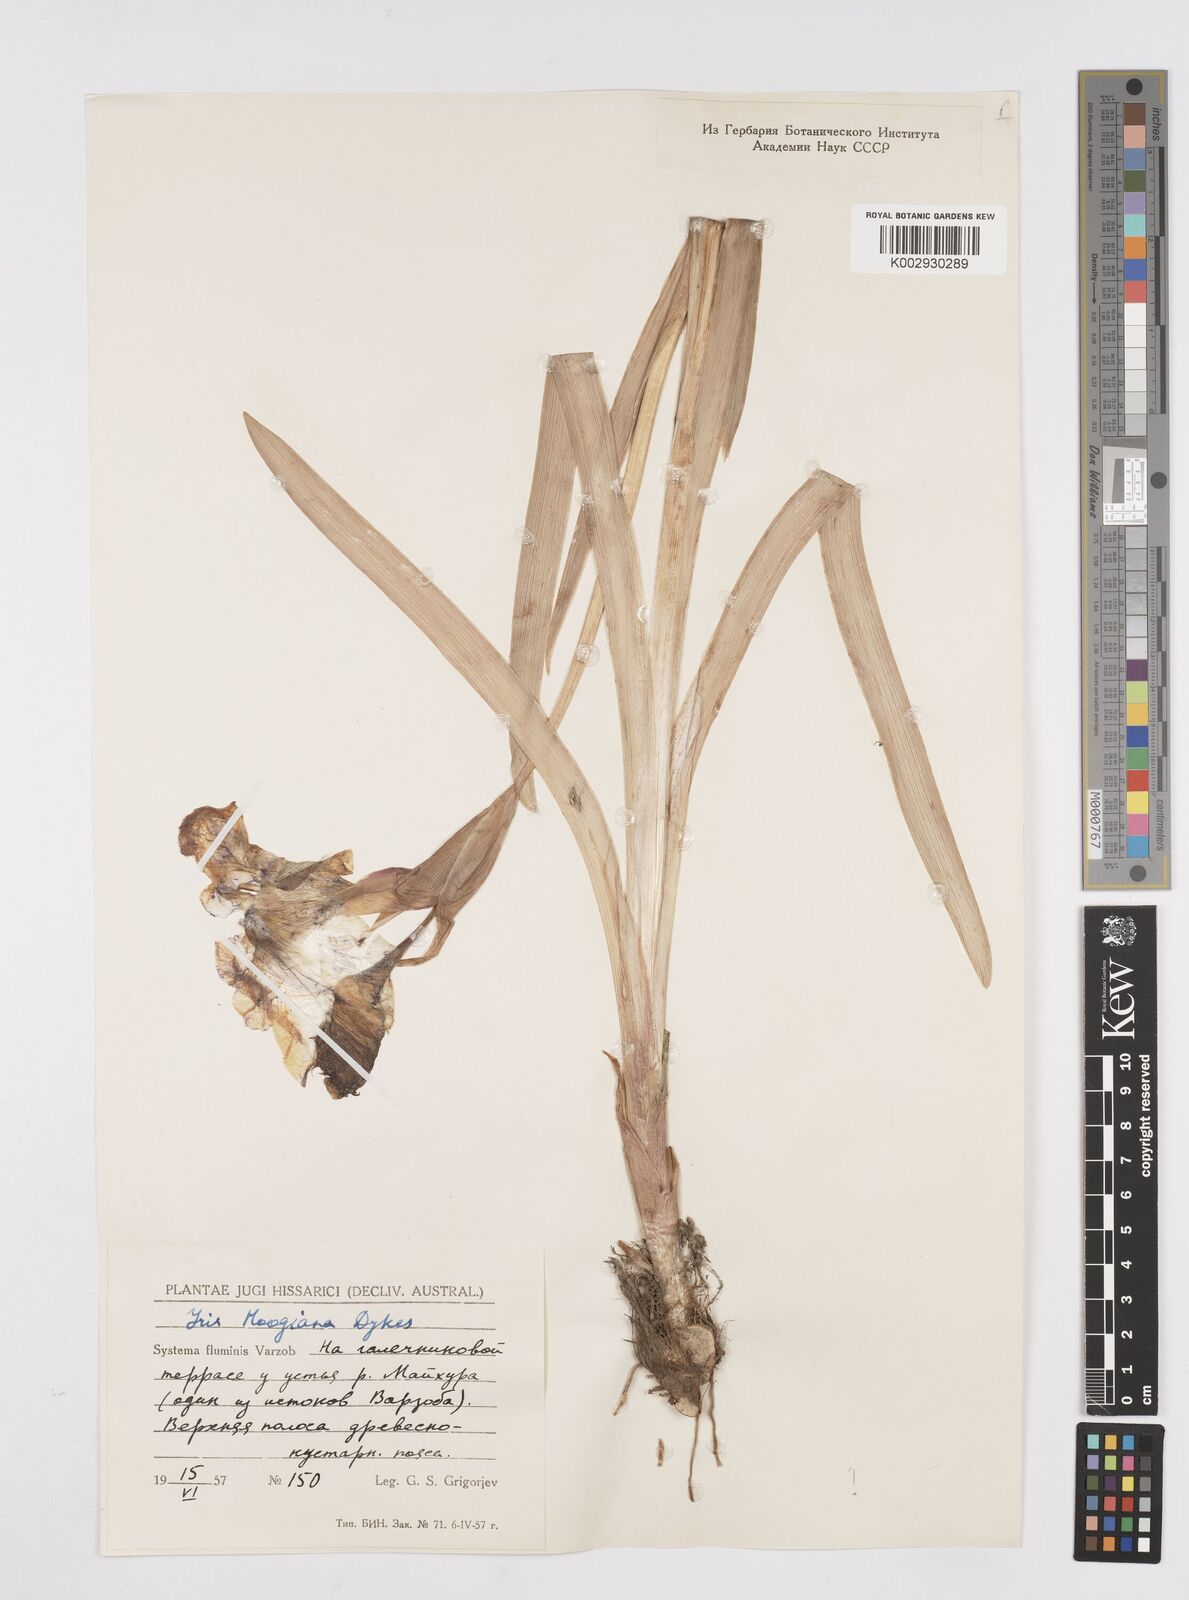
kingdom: Plantae
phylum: Tracheophyta
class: Liliopsida
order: Asparagales
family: Iridaceae
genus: Iris
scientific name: Iris hoogiana
